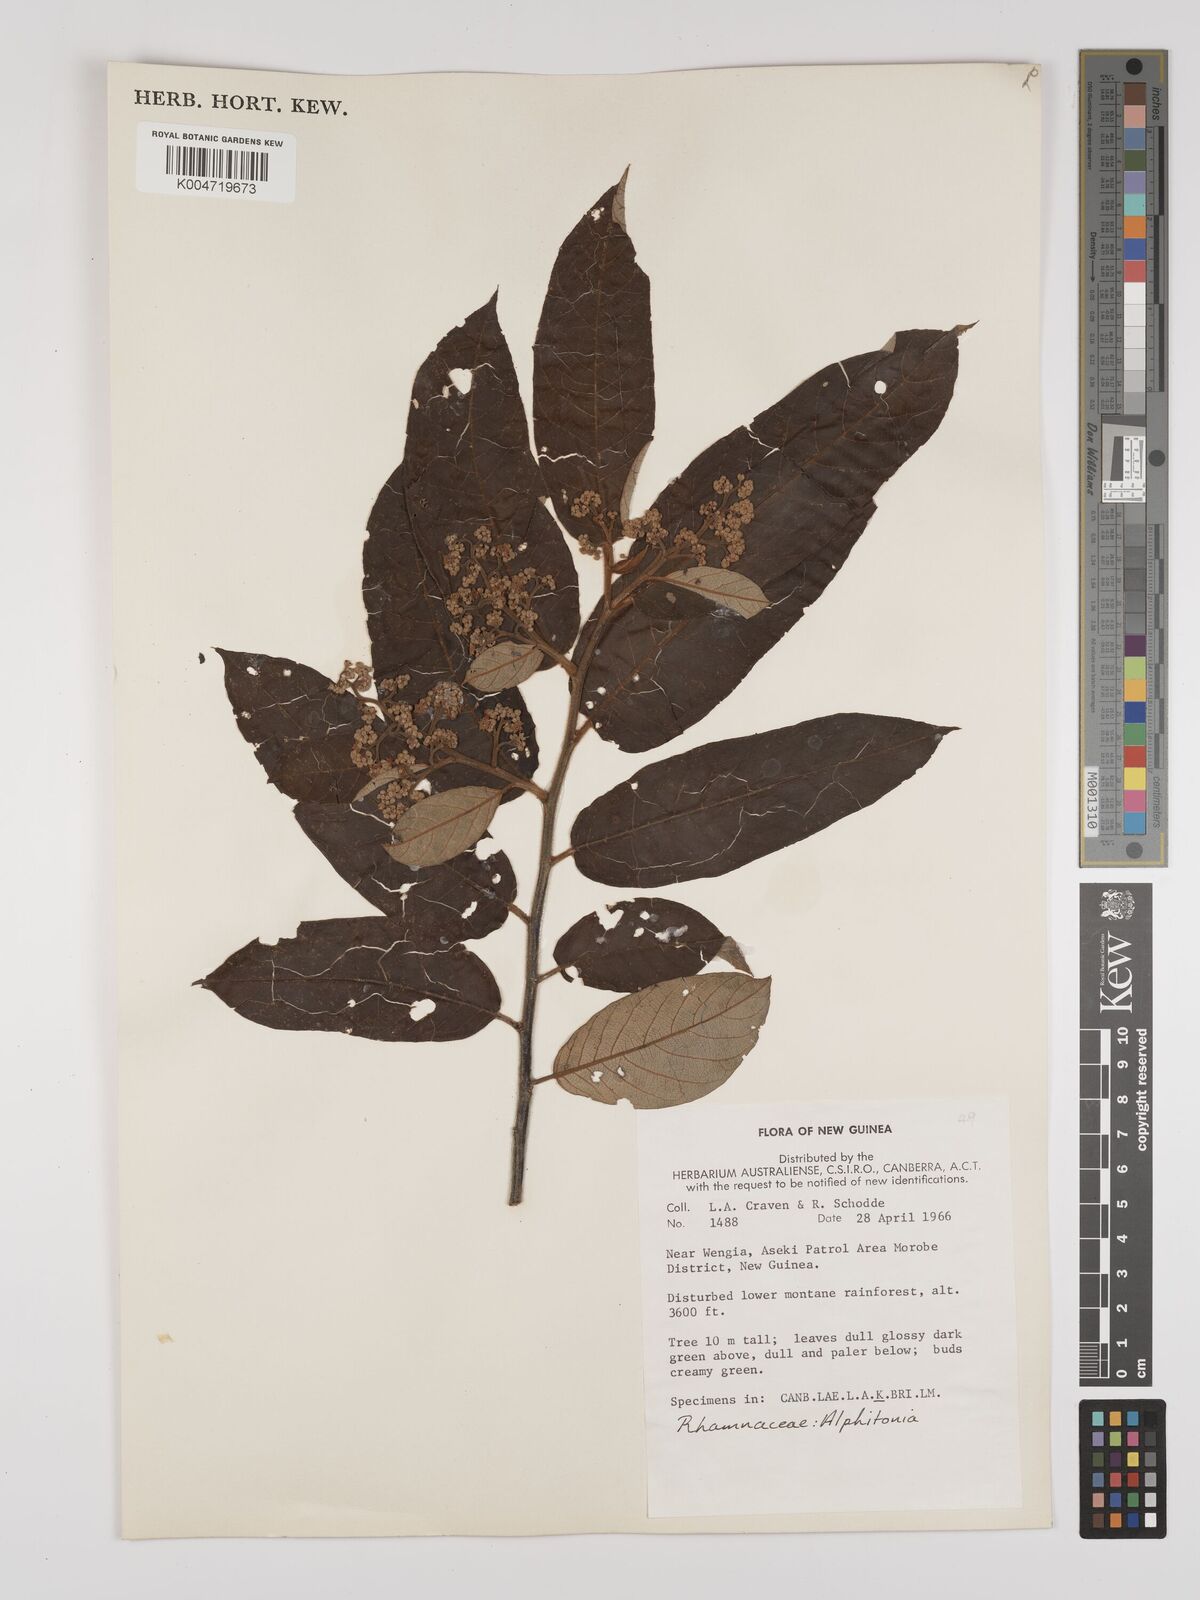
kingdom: Plantae
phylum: Tracheophyta
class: Magnoliopsida
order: Rosales
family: Rhamnaceae
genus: Alphitonia
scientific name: Alphitonia
